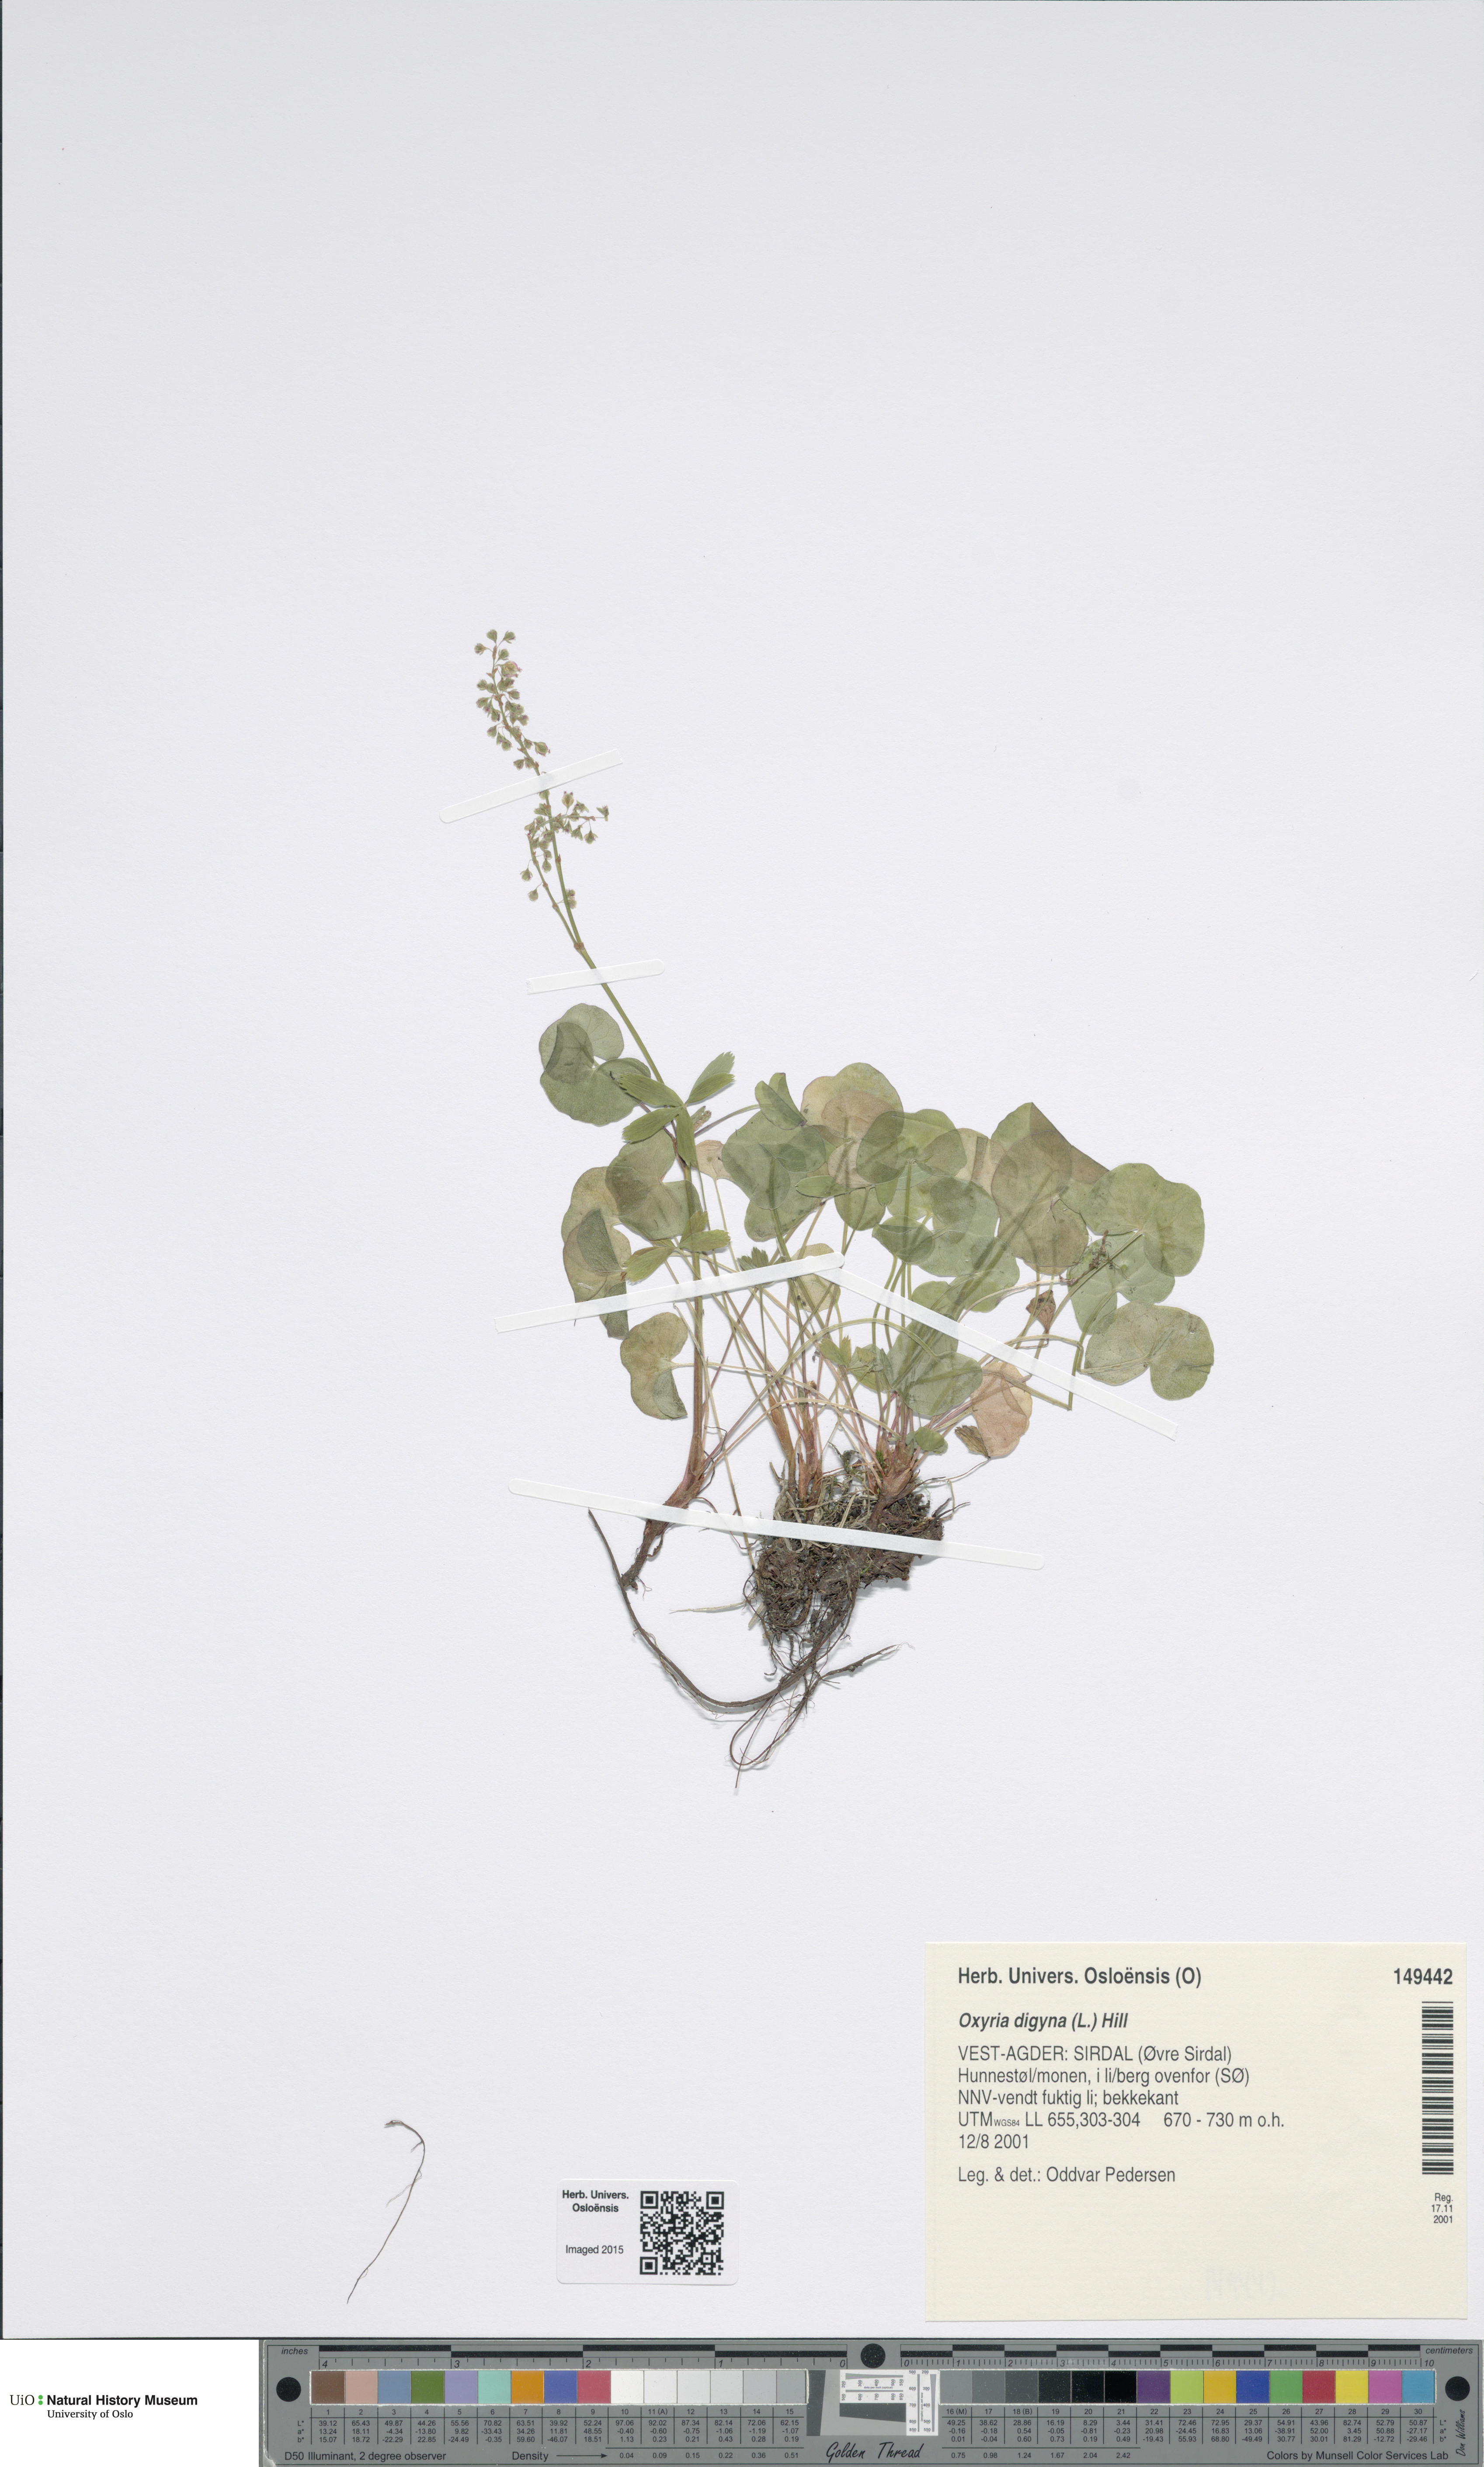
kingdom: Plantae
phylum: Tracheophyta
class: Magnoliopsida
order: Caryophyllales
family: Polygonaceae
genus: Oxyria
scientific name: Oxyria digyna
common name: Alpine mountain-sorrel
